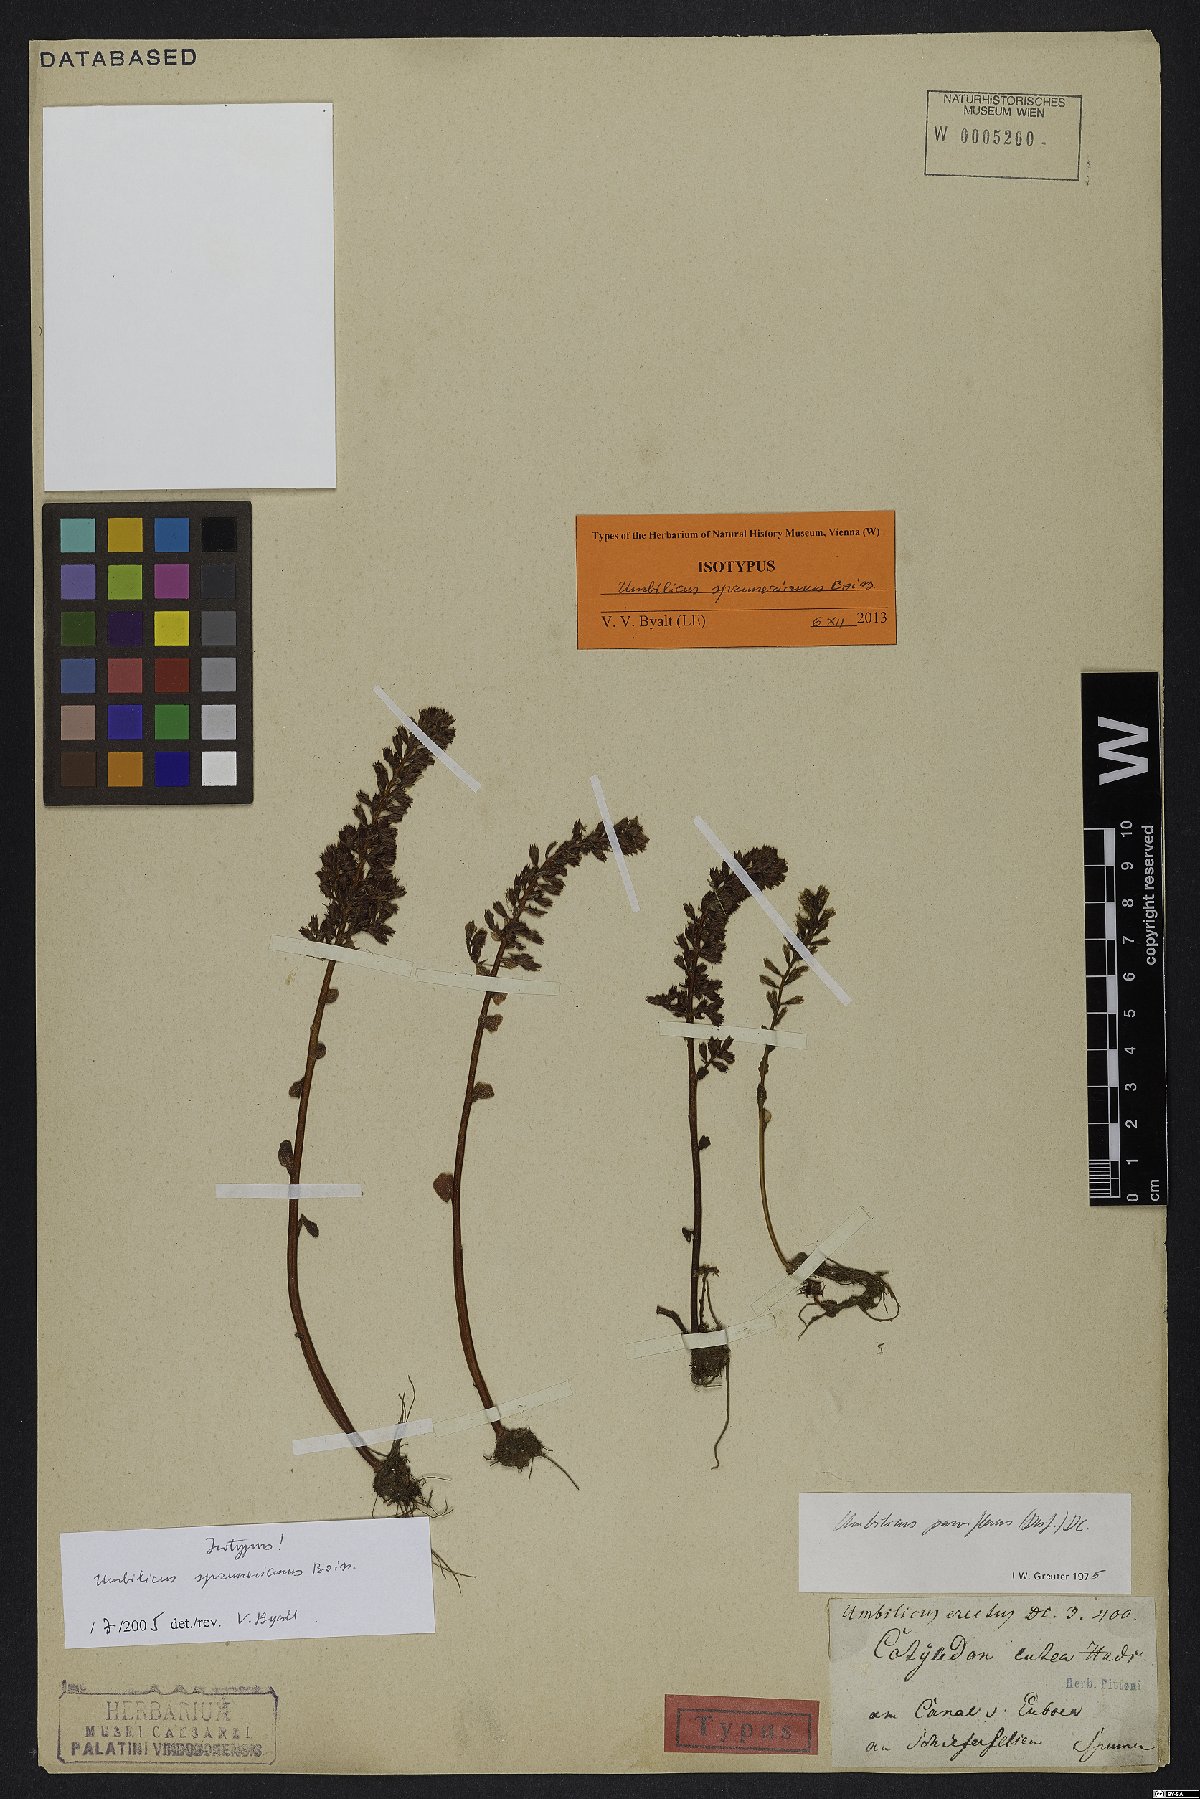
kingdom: Plantae
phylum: Tracheophyta
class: Magnoliopsida
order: Saxifragales
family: Crassulaceae
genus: Umbilicus
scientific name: Umbilicus parviflorus
